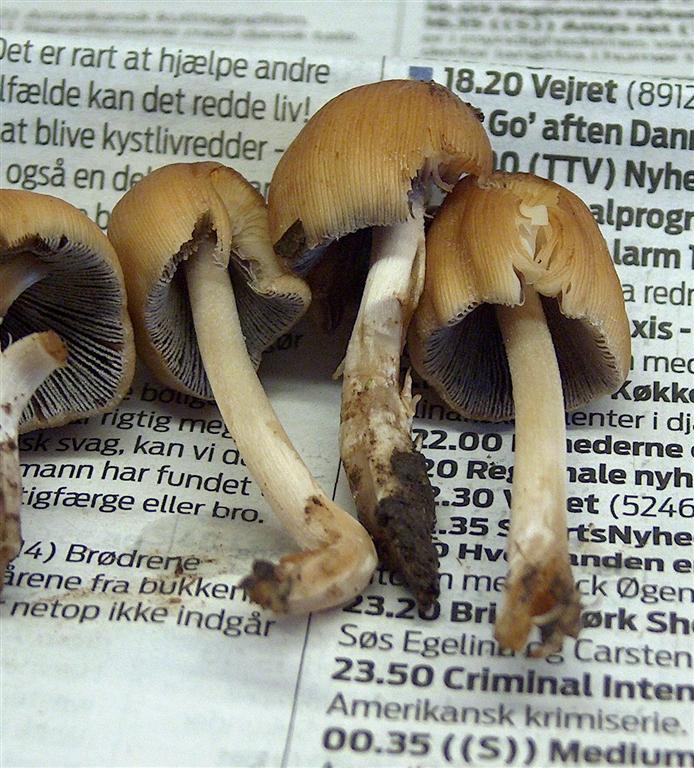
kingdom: Fungi
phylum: Basidiomycota
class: Agaricomycetes
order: Agaricales
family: Psathyrellaceae
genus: Coprinellus
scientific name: Coprinellus micaceus
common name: glimmer-blækhat
